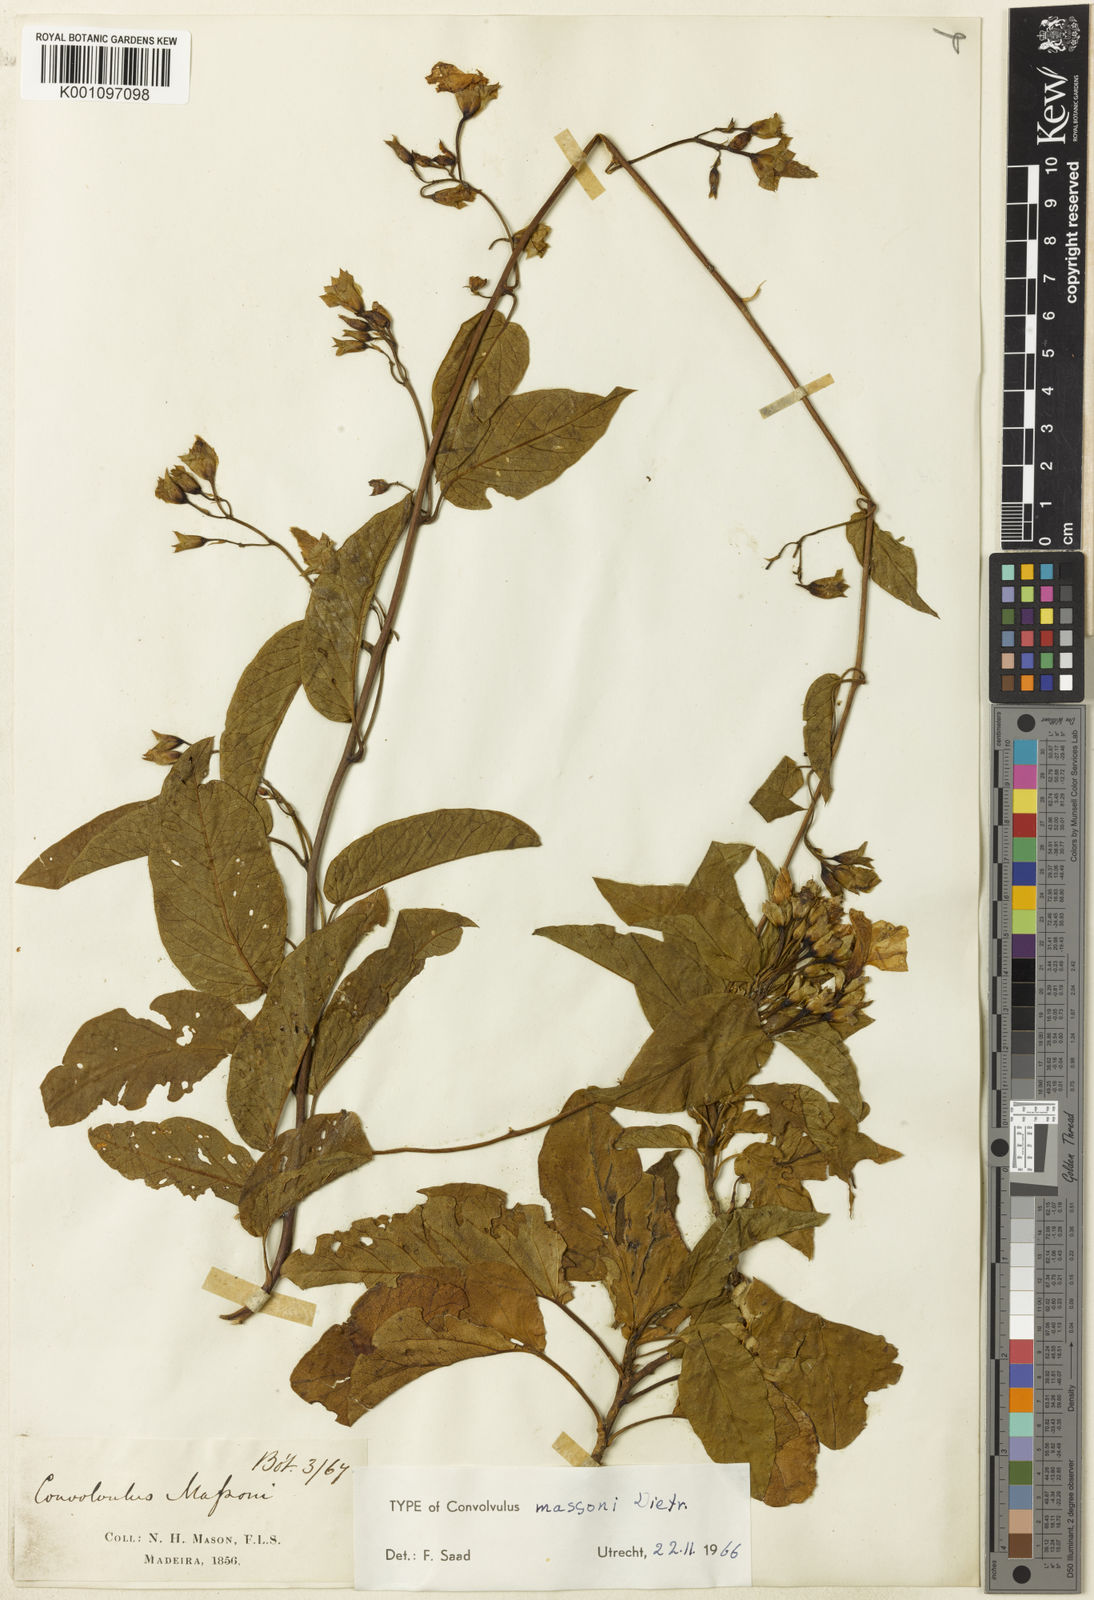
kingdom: Plantae
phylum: Tracheophyta
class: Magnoliopsida
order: Solanales
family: Convolvulaceae
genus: Convolvulus
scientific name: Convolvulus massonii
